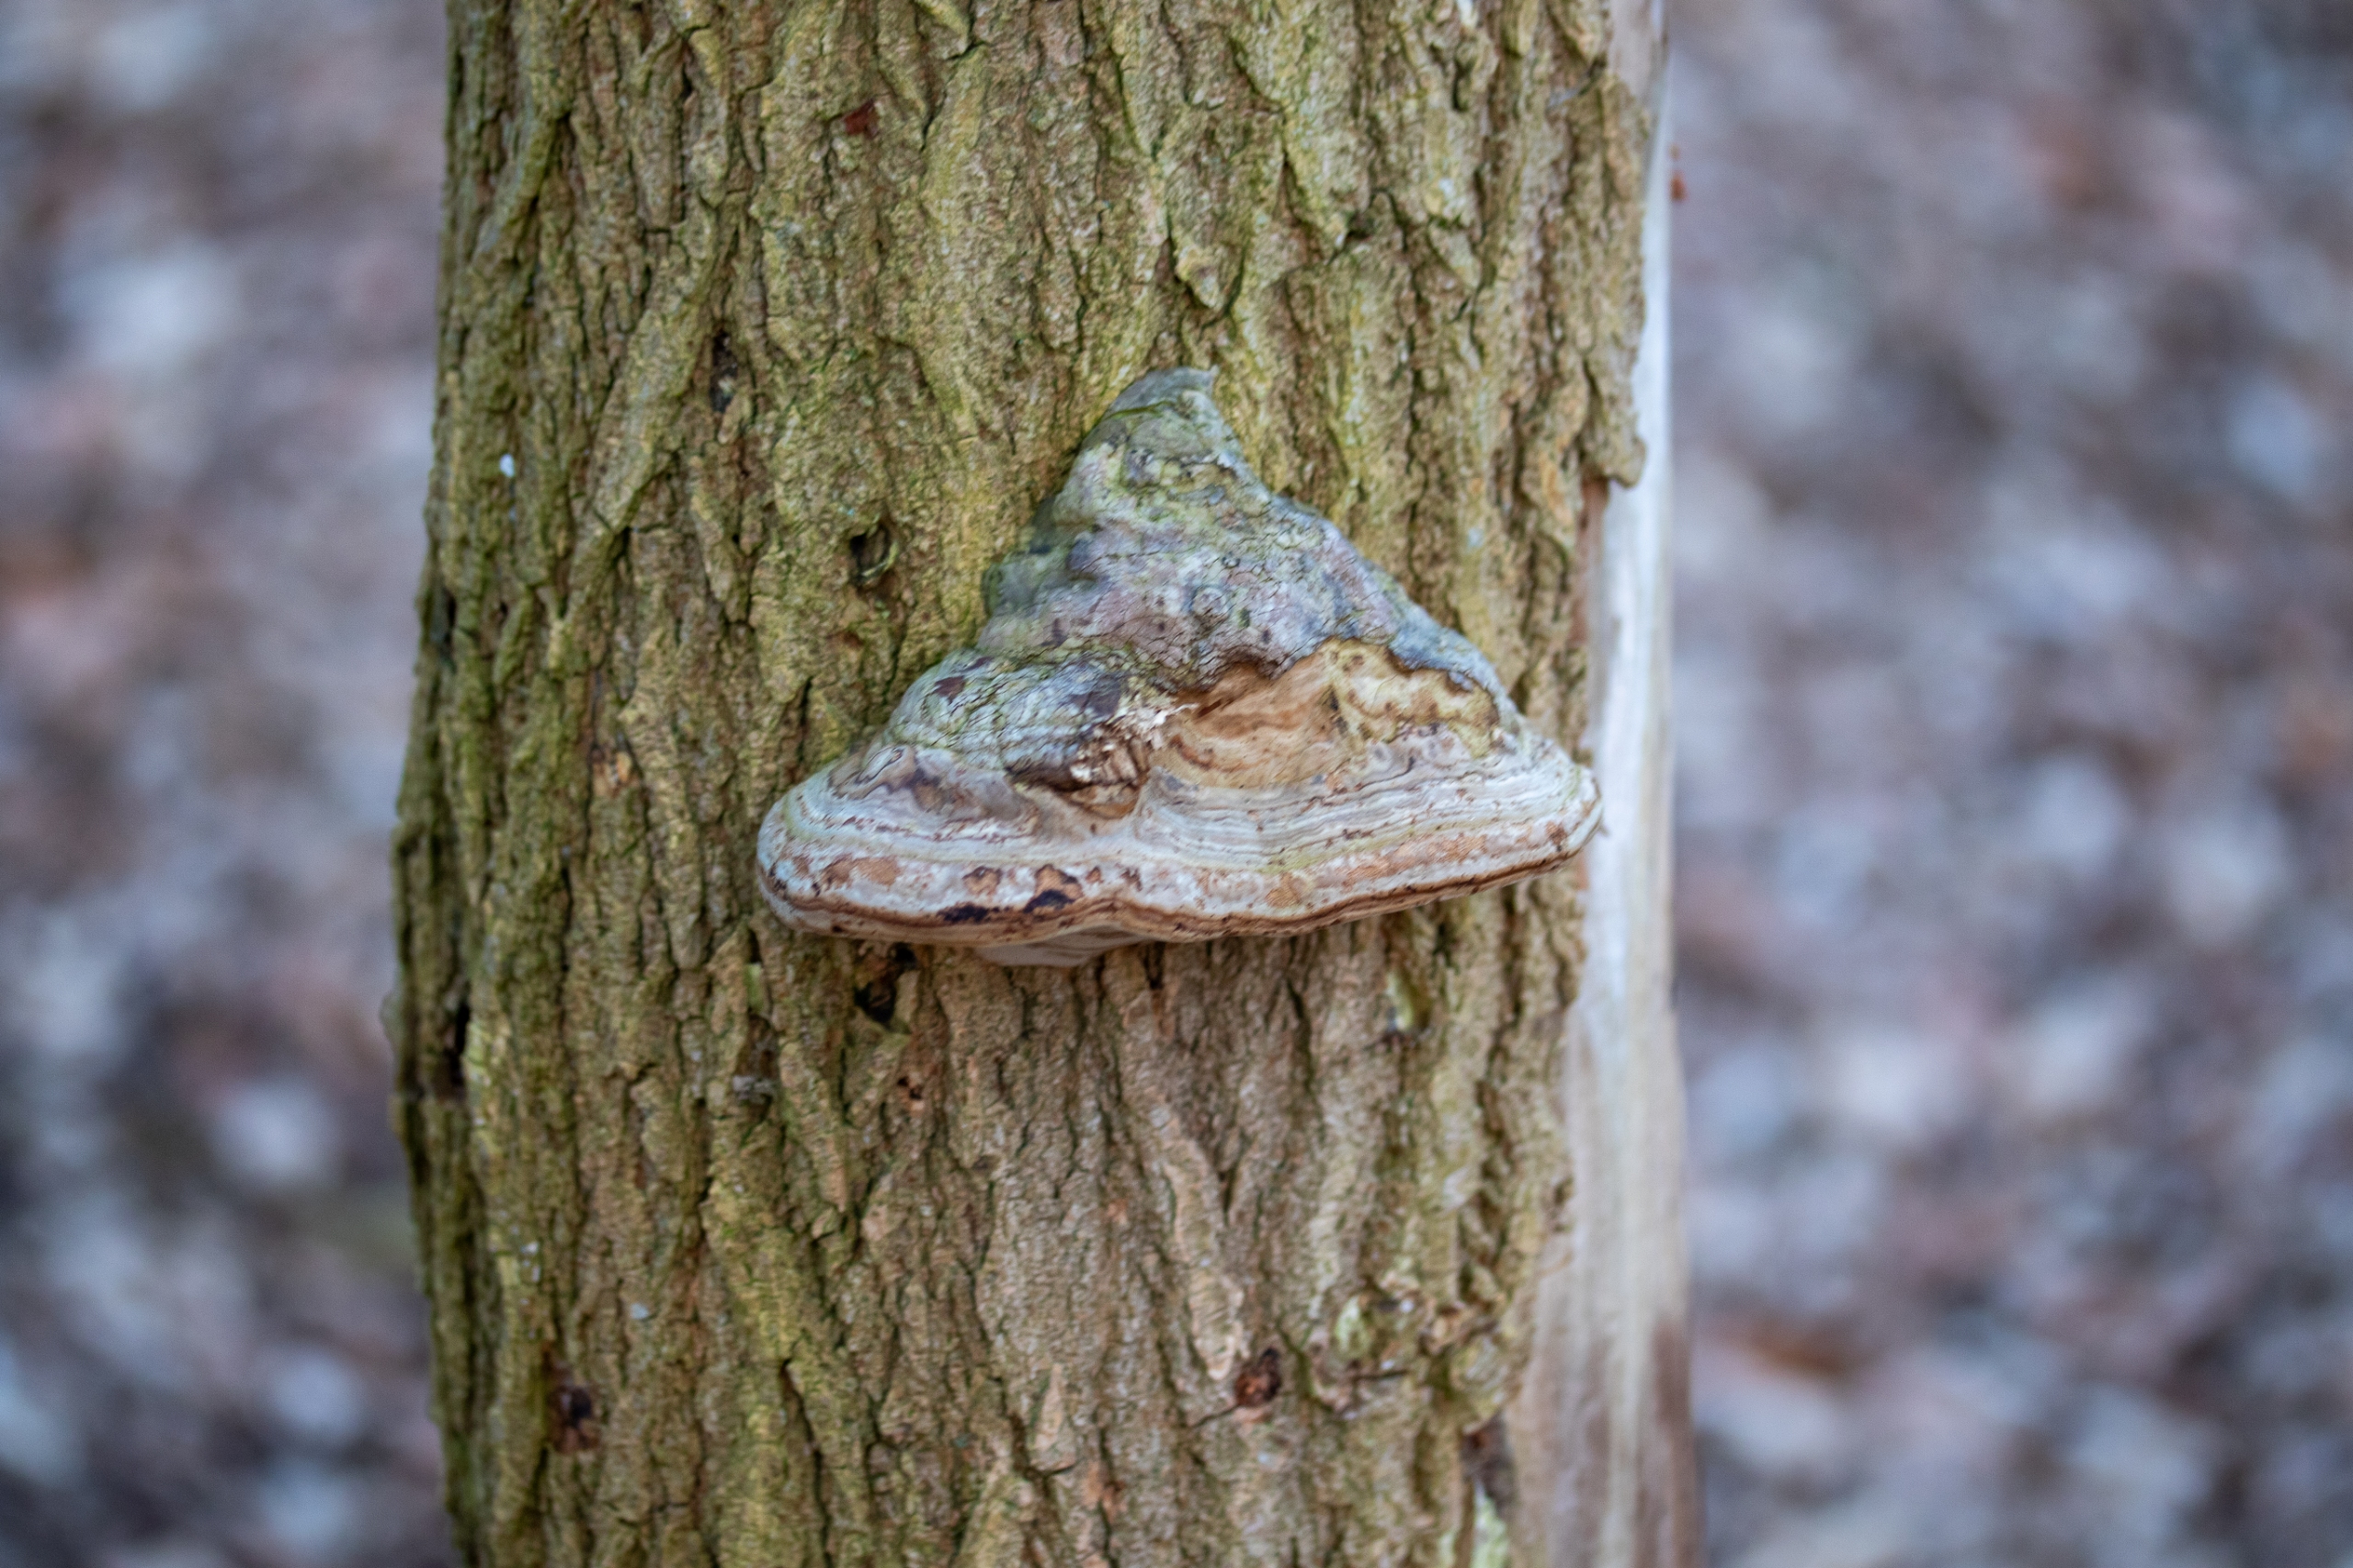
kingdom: Fungi
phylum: Basidiomycota
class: Agaricomycetes
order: Polyporales
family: Polyporaceae
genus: Fomes
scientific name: Fomes fomentarius
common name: Tøndersvamp
